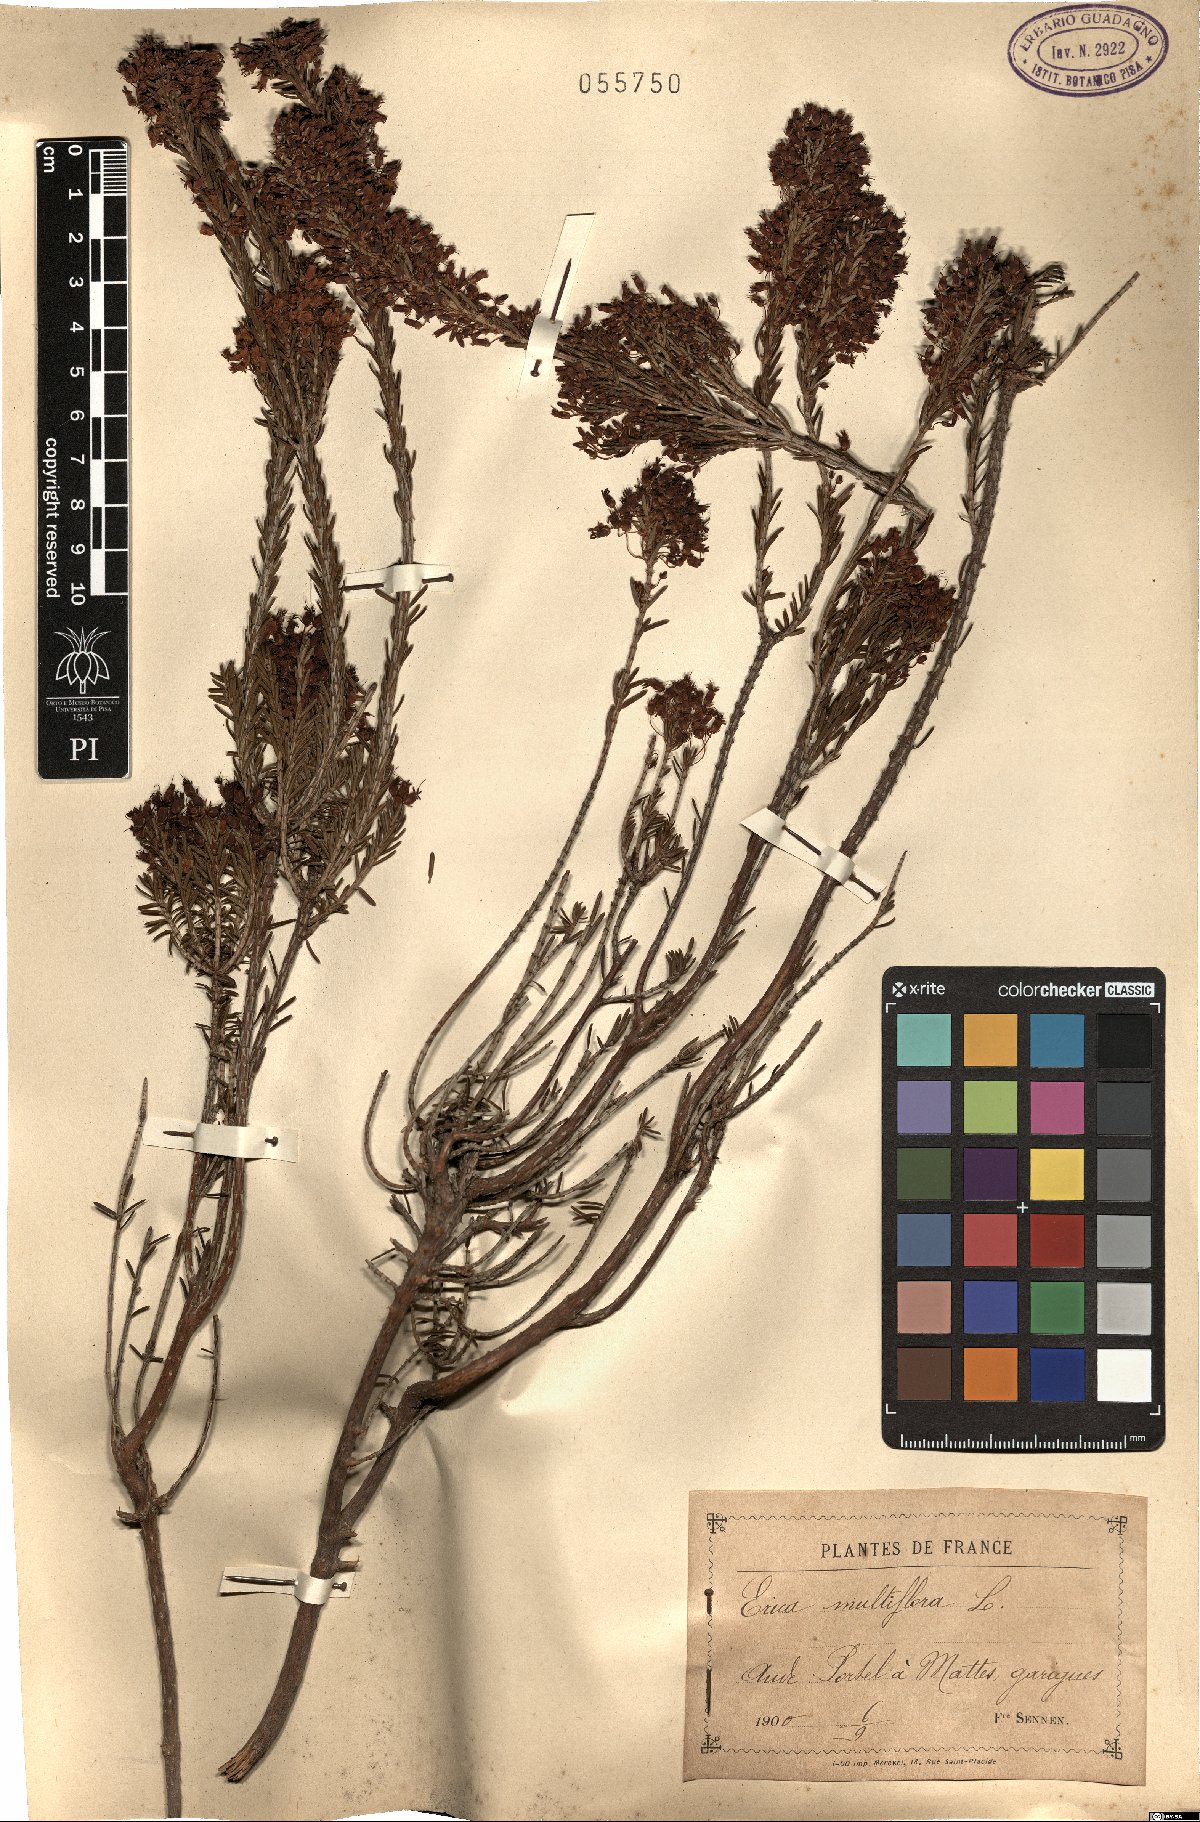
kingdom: Plantae
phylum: Tracheophyta
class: Magnoliopsida
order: Ericales
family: Ericaceae
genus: Erica
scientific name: Erica multiflora
